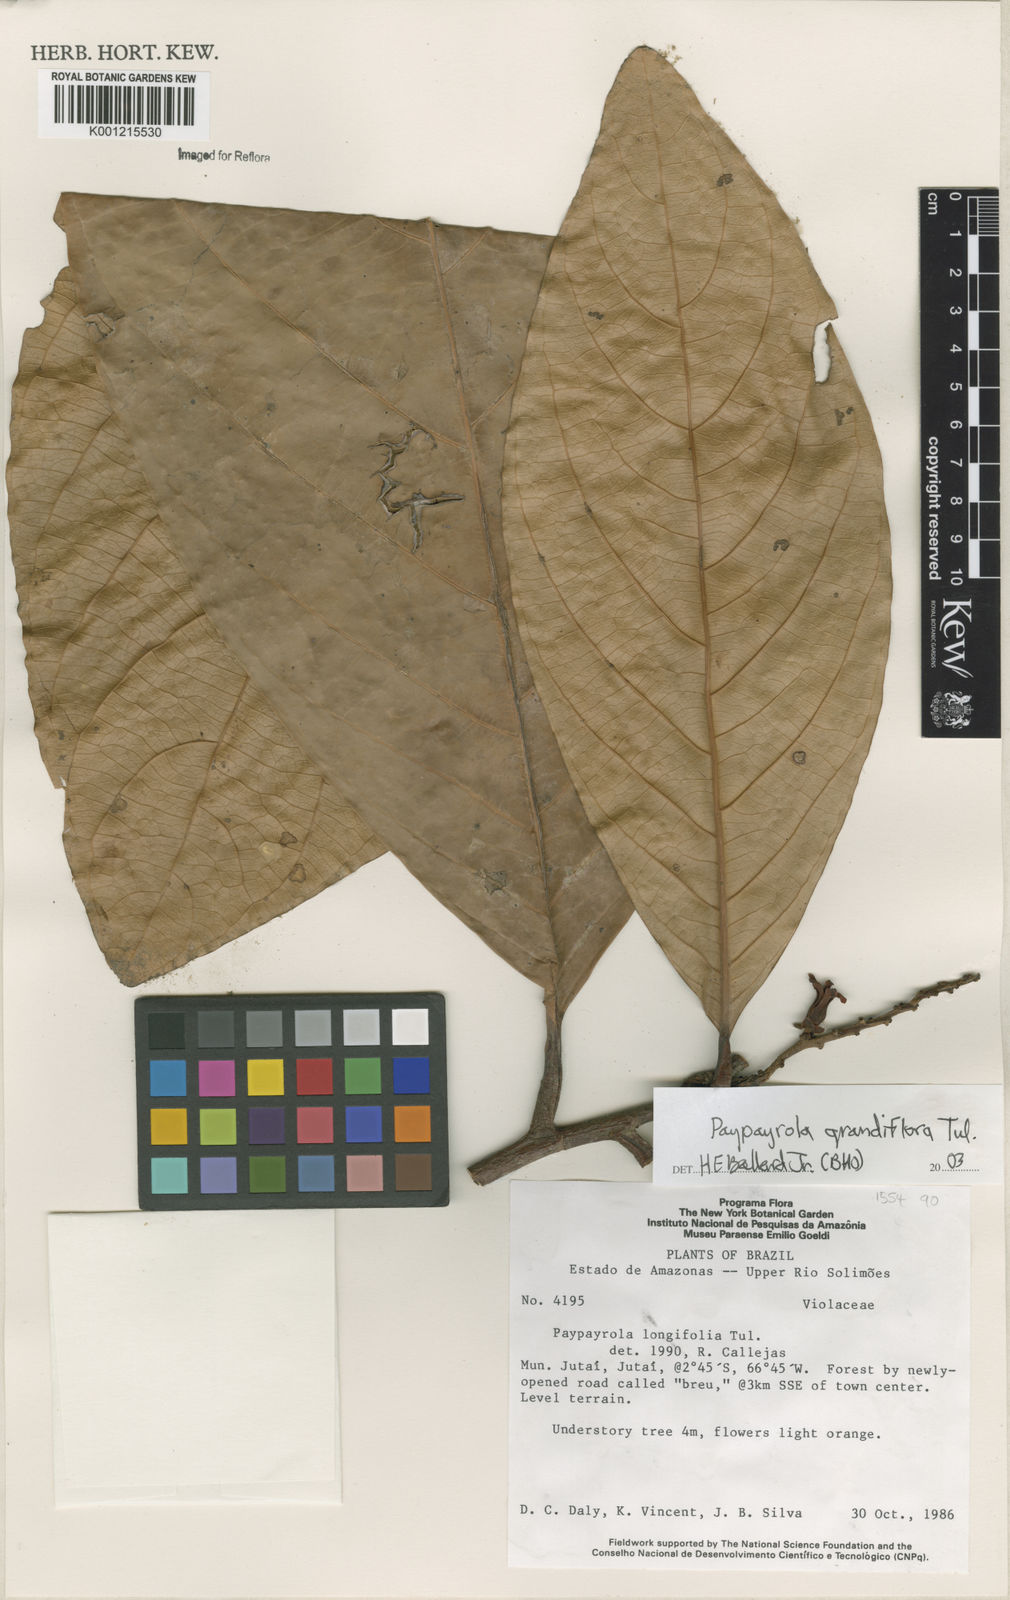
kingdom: Plantae
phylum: Tracheophyta
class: Magnoliopsida
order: Malpighiales
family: Violaceae
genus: Paypayrola
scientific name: Paypayrola grandiflora
